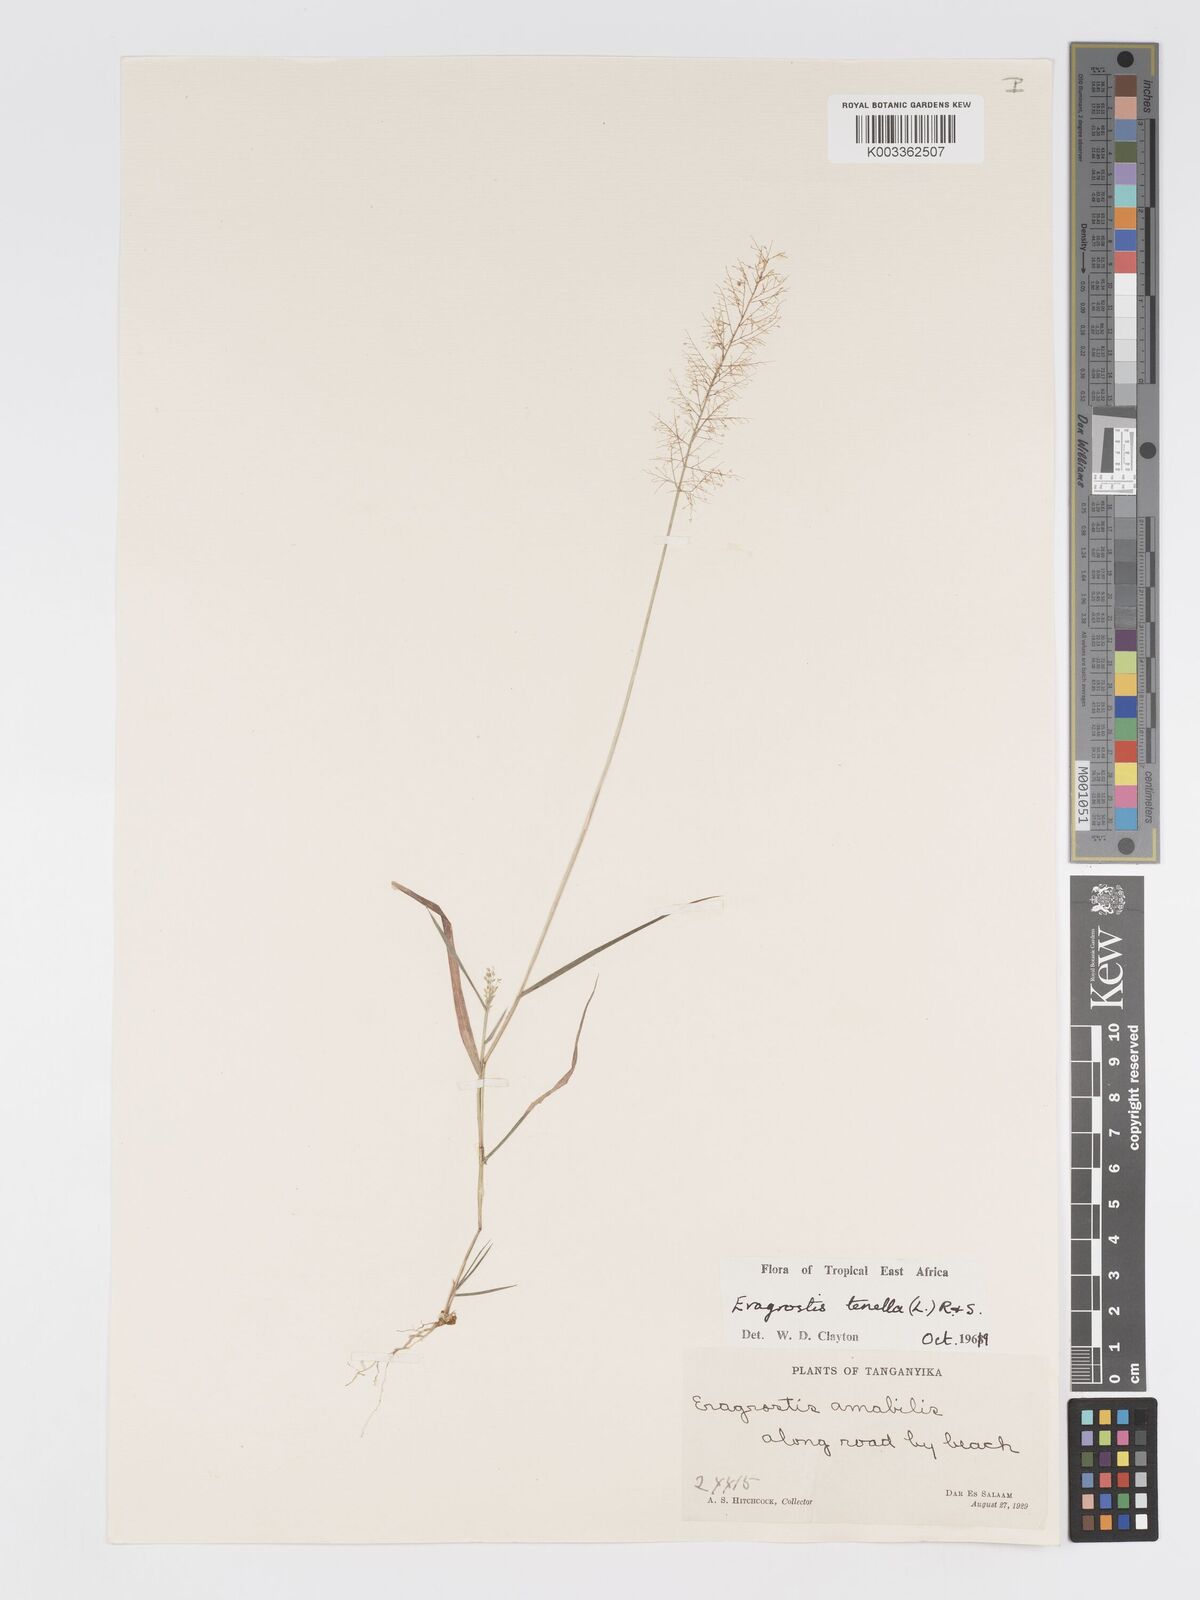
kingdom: Plantae
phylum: Tracheophyta
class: Liliopsida
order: Poales
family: Poaceae
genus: Eragrostis
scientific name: Eragrostis tenella
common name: Japanese lovegrass
